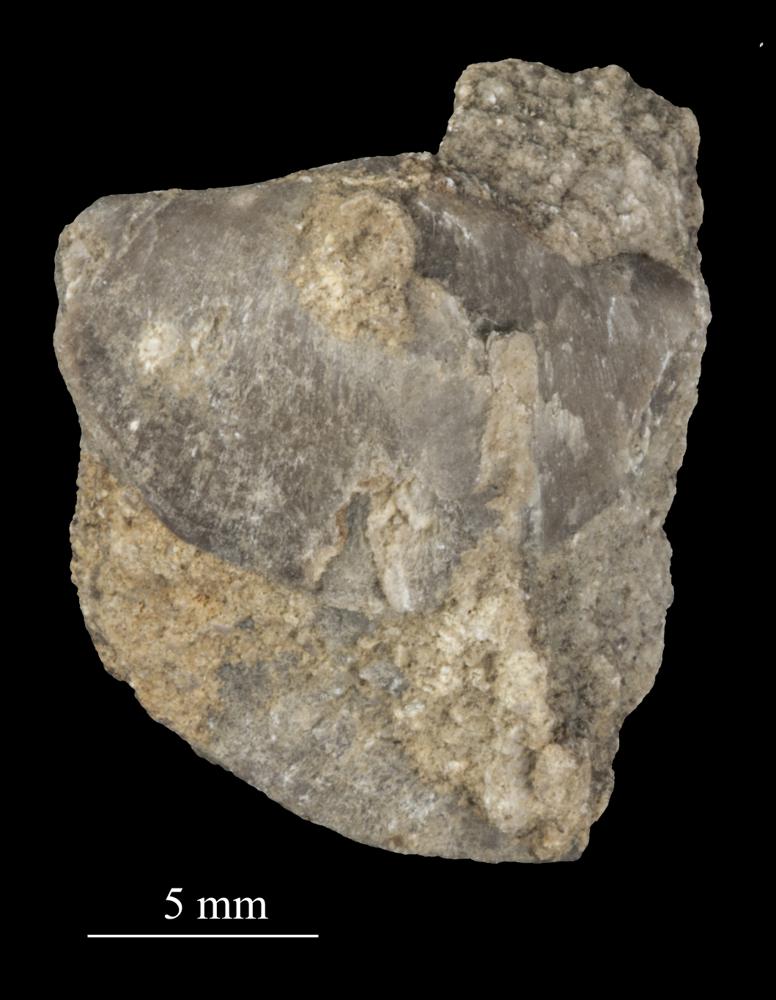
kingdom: Animalia
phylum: Brachiopoda
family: Sowerbyellidae
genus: Sowerbyella
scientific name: Sowerbyella
